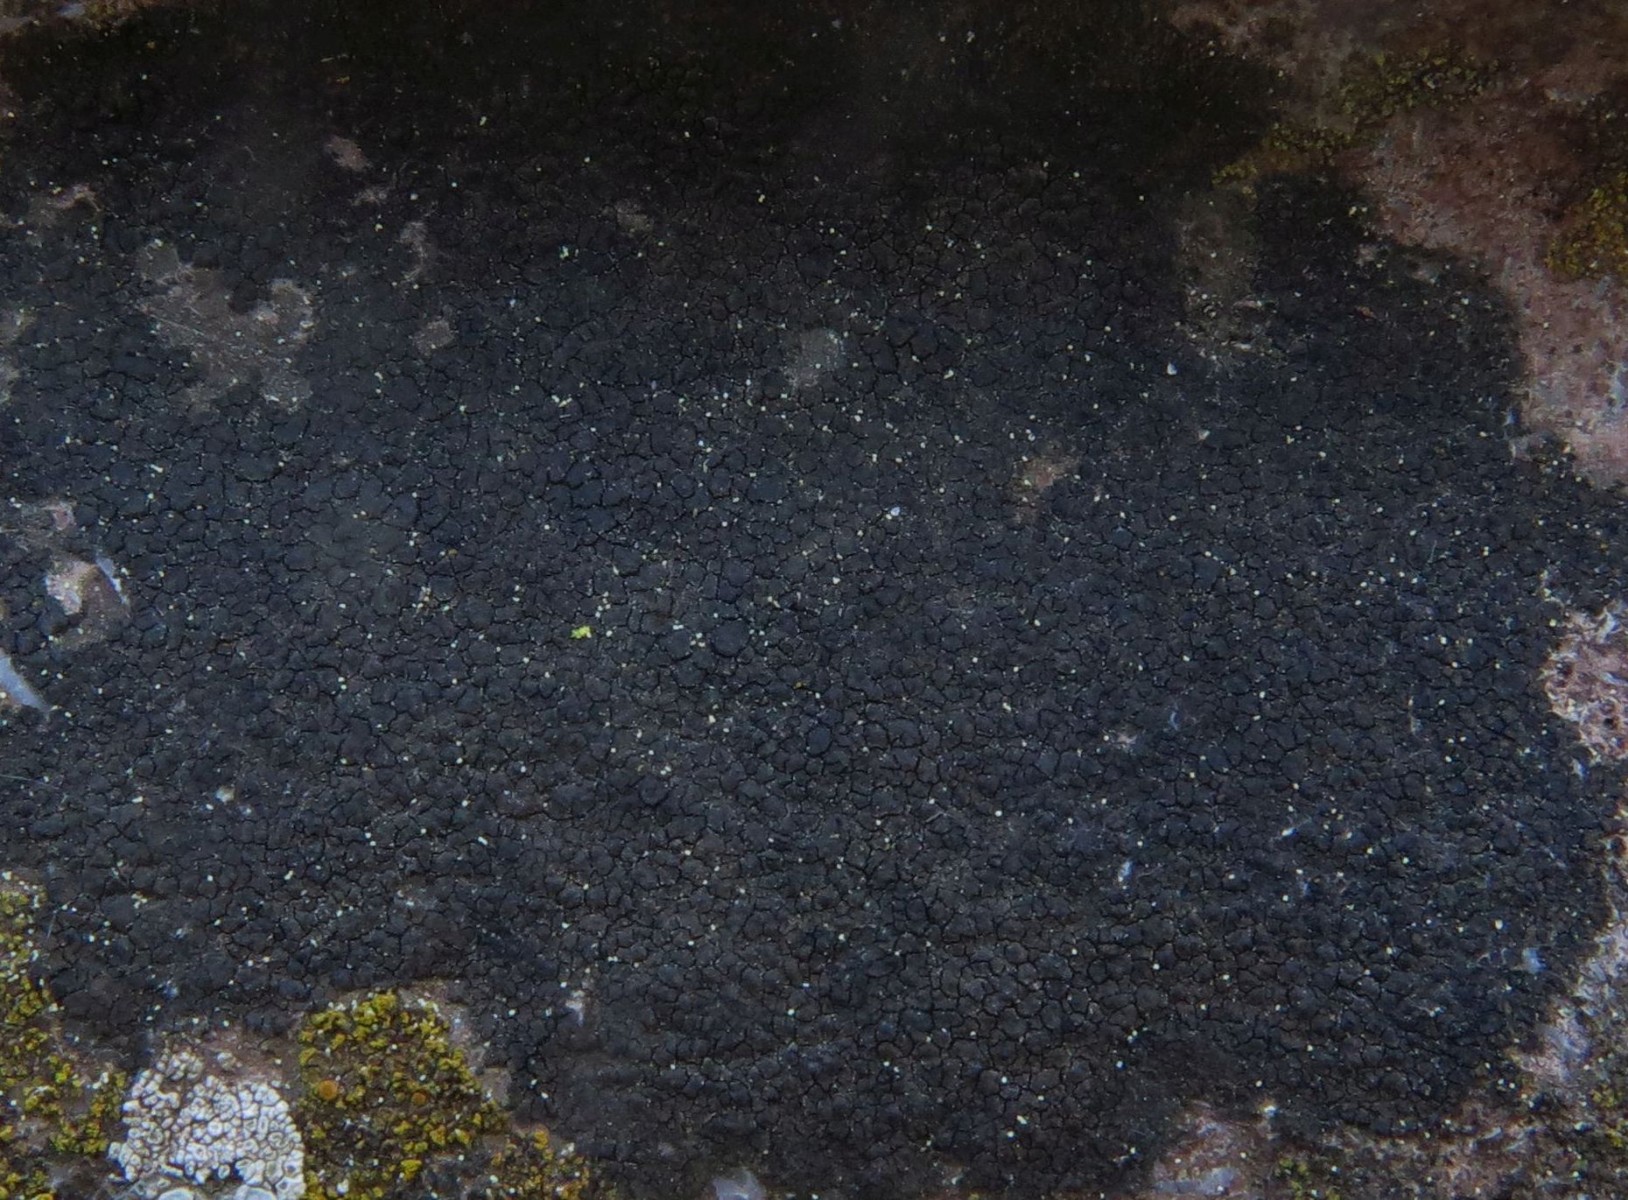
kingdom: Fungi
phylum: Ascomycota
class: Eurotiomycetes
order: Verrucariales
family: Verrucariaceae
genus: Verrucaria
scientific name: Verrucaria nigrescens
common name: sortbrun vortelav
